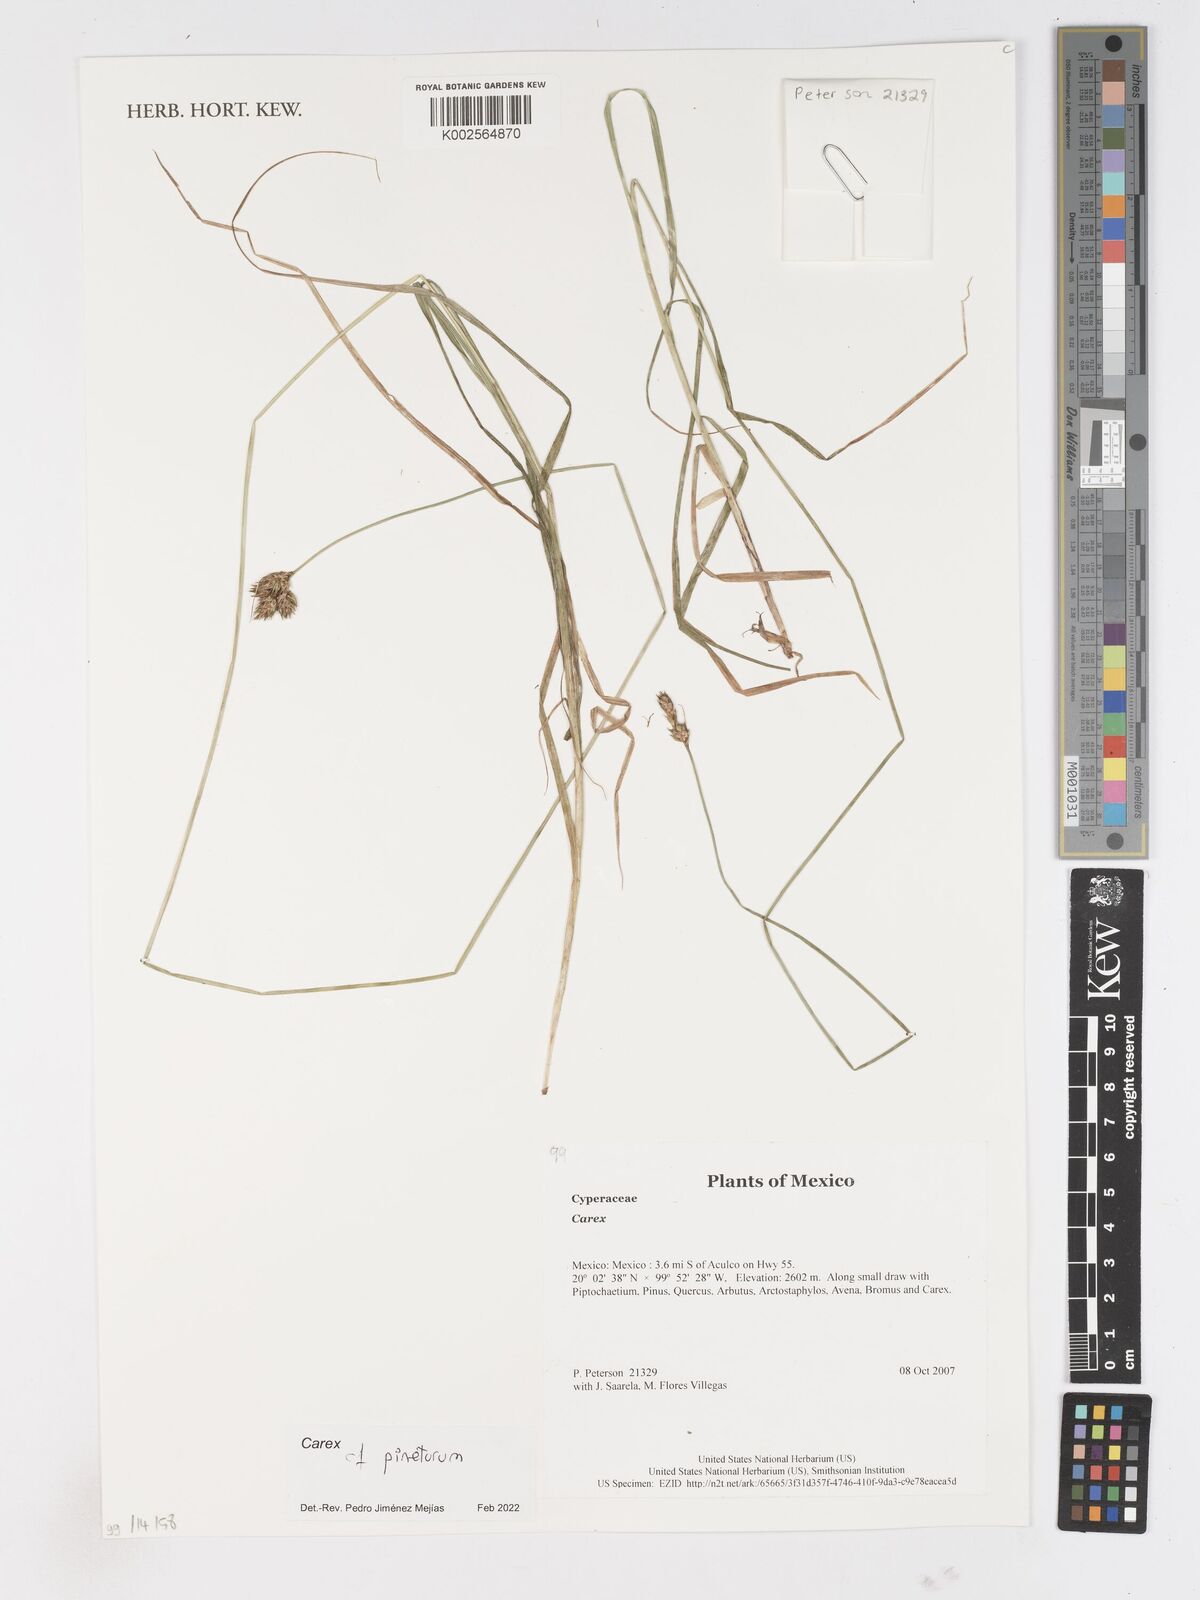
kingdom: Plantae
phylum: Tracheophyta
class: Liliopsida
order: Poales
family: Cyperaceae
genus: Carex
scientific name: Carex
